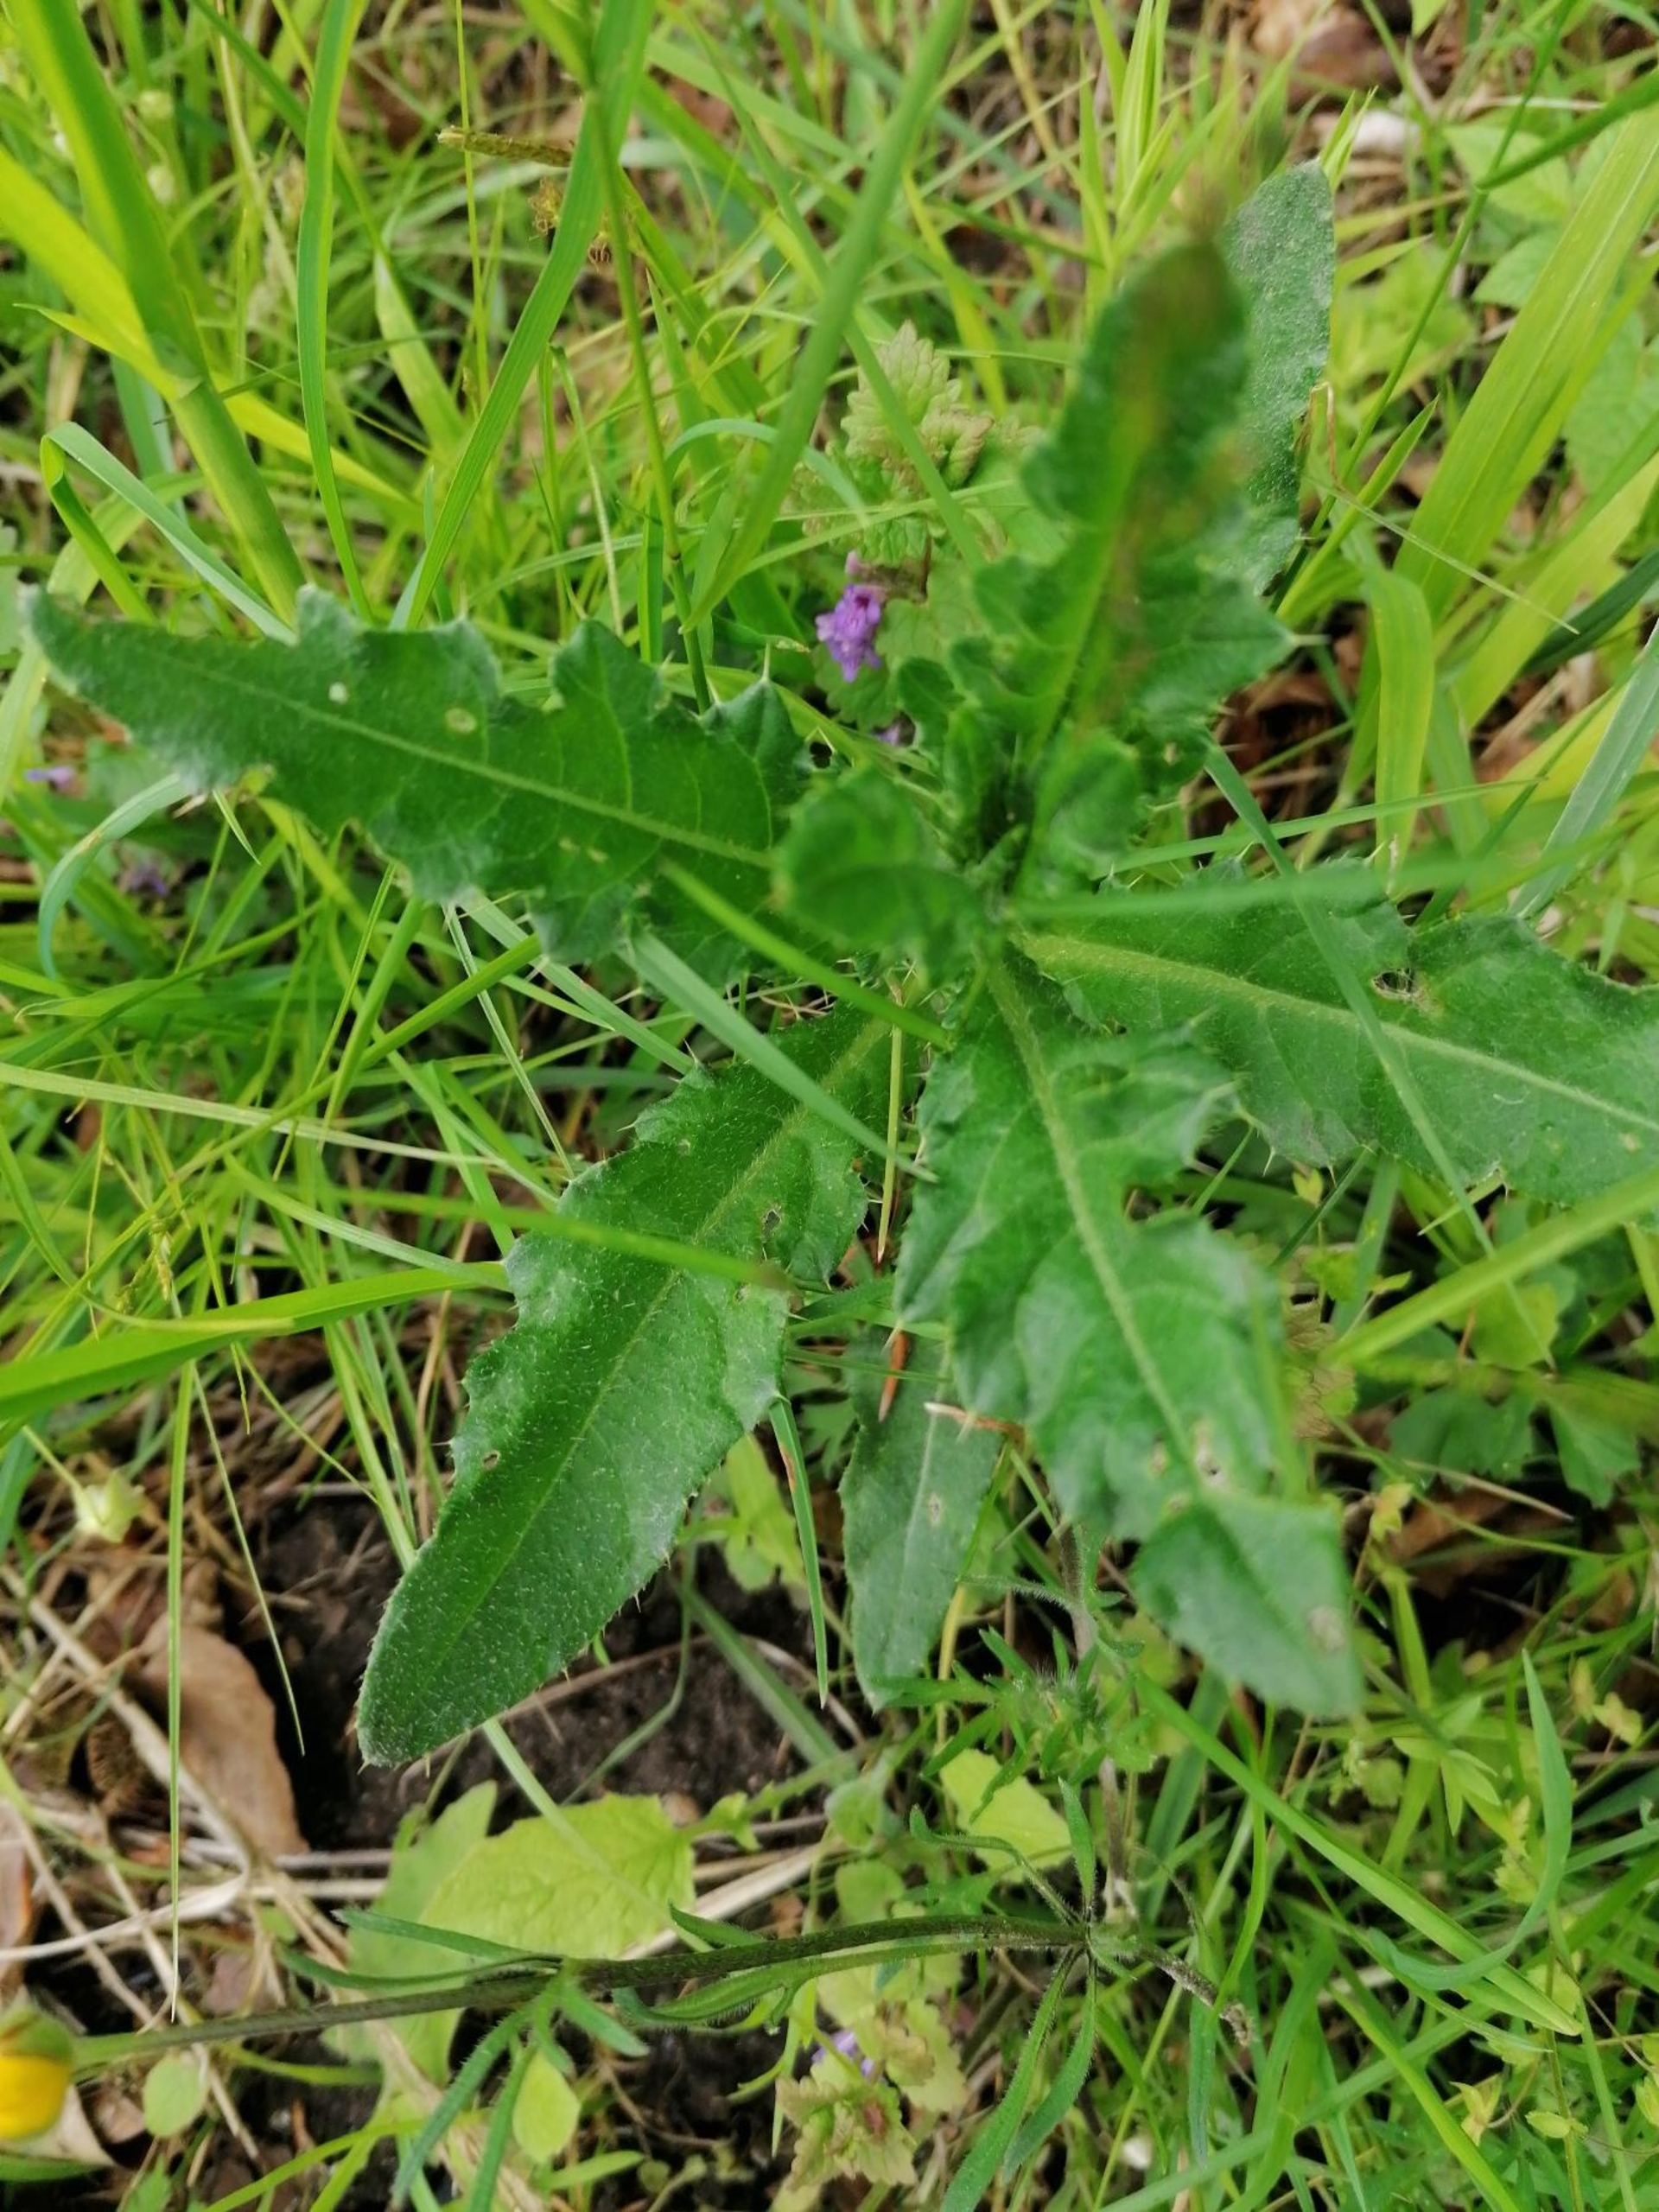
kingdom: Plantae
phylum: Tracheophyta
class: Magnoliopsida
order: Caryophyllales
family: Caryophyllaceae
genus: Rabelera
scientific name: Rabelera holostea
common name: Stor fladstjerne
